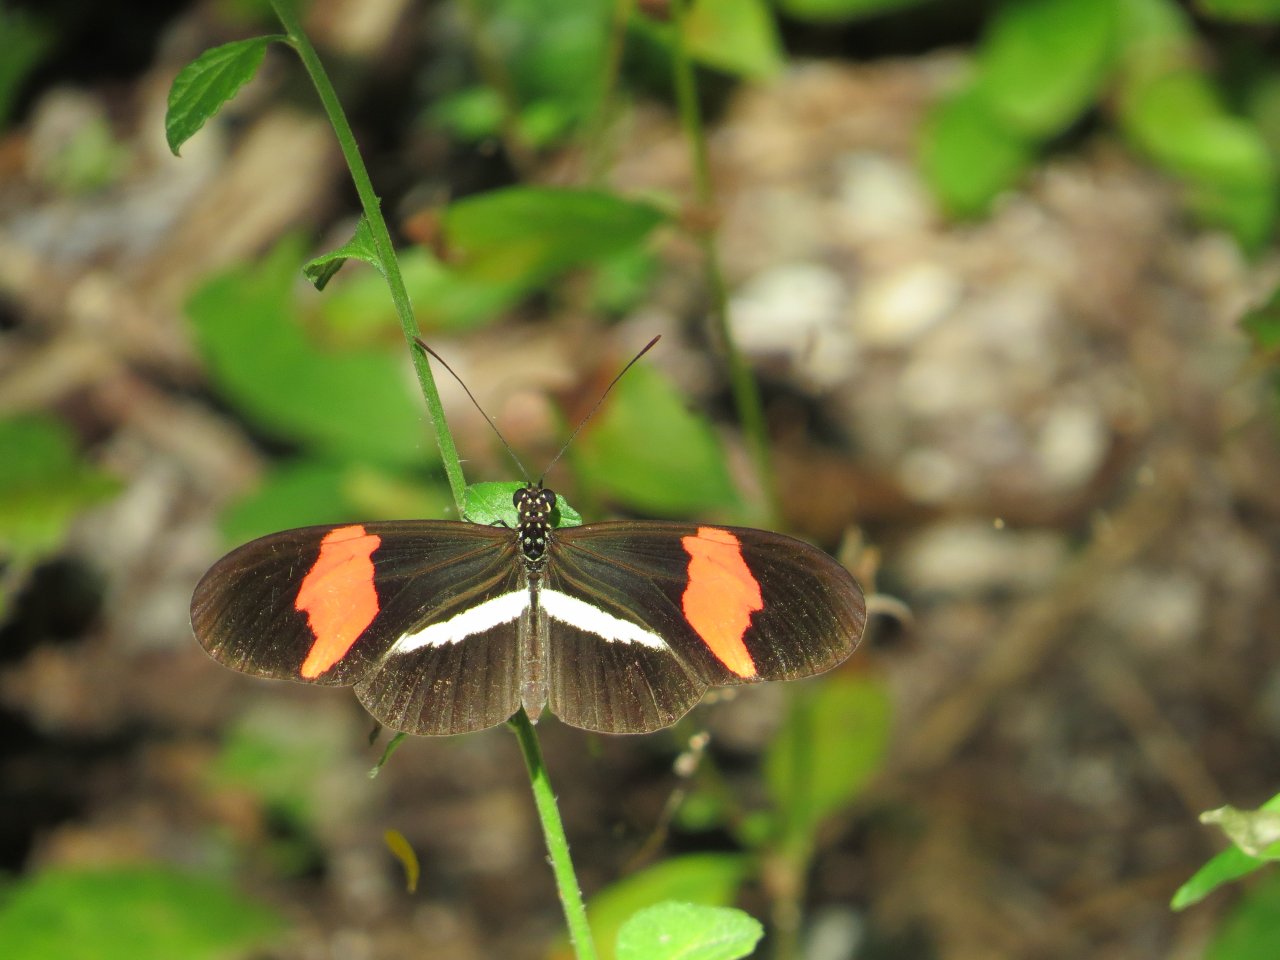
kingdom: Animalia
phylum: Arthropoda
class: Insecta
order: Lepidoptera
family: Nymphalidae
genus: Heliconius
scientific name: Heliconius erato
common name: Erato Heliconian
